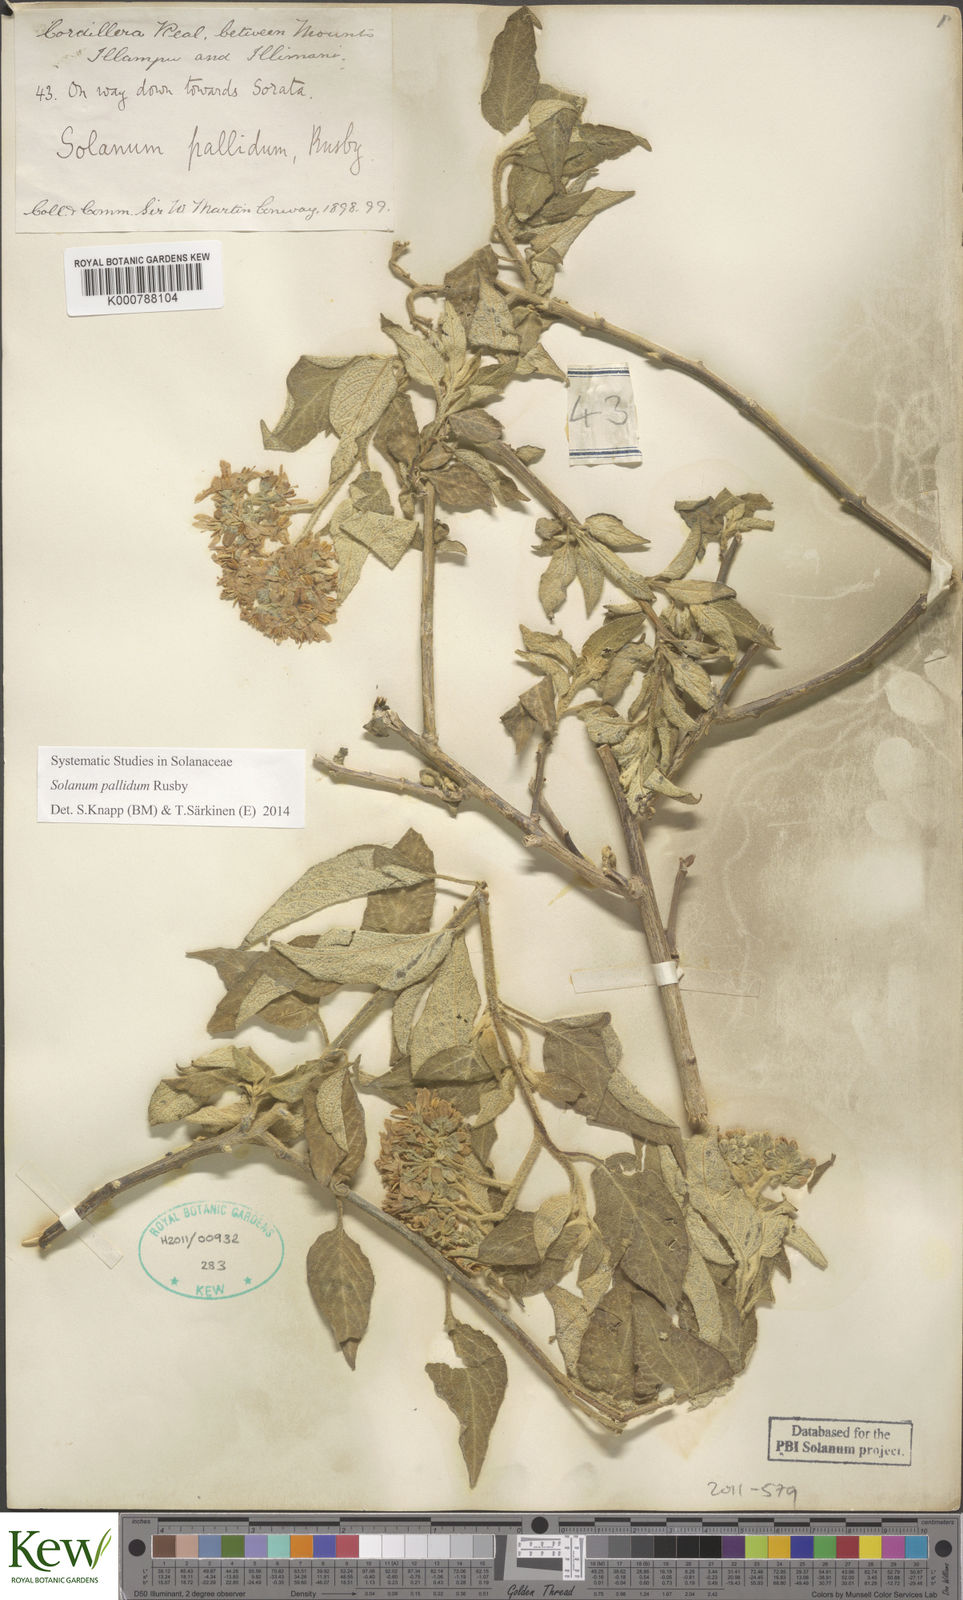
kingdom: Plantae
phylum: Tracheophyta
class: Magnoliopsida
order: Solanales
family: Solanaceae
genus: Solanum
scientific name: Solanum pallidum
